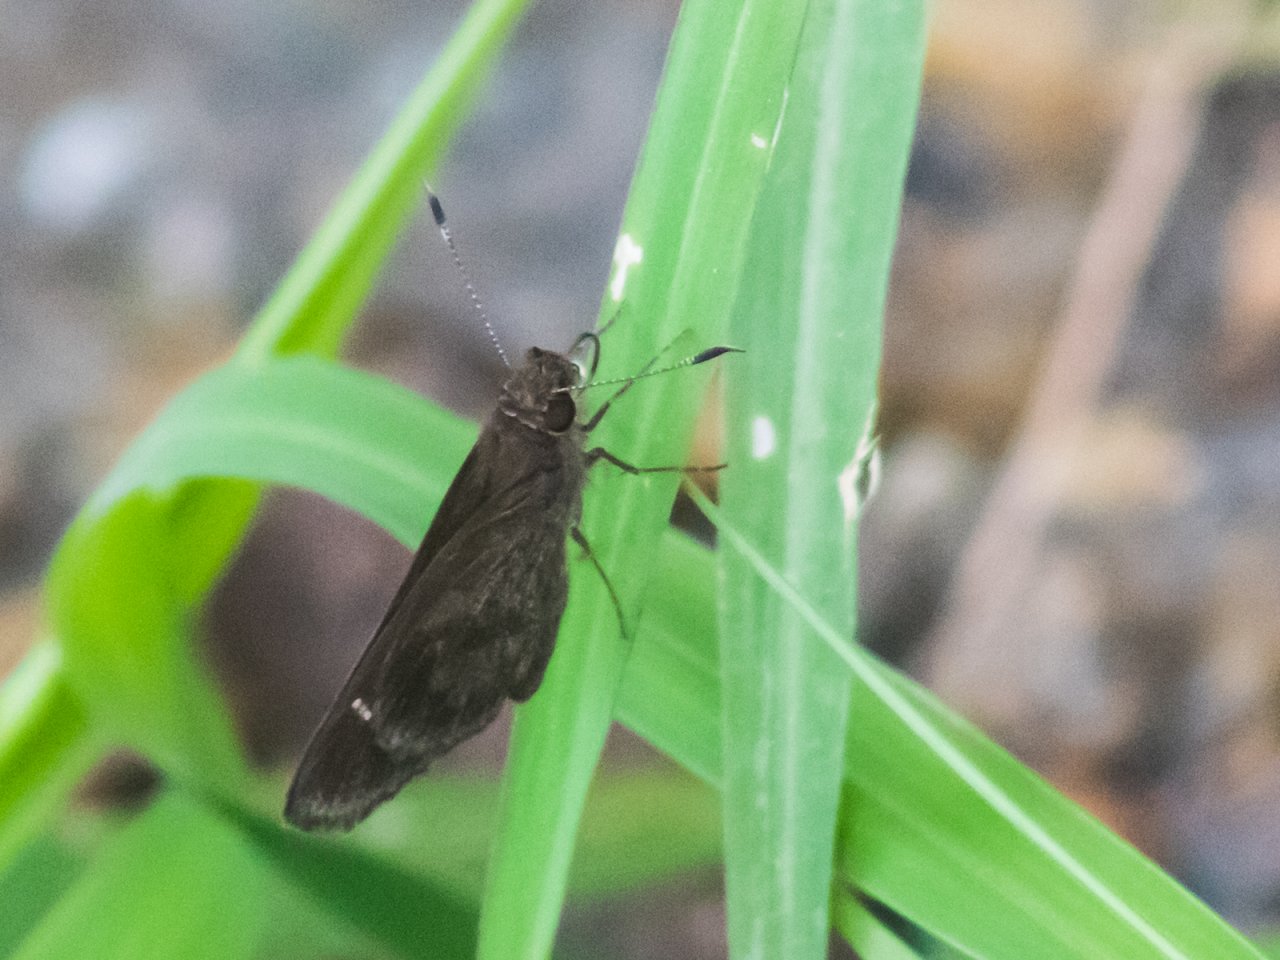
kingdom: Animalia
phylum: Arthropoda
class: Insecta
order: Lepidoptera
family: Hesperiidae
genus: Cymaenes
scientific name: Cymaenes odilia
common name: Fawn-spotted Skipper
